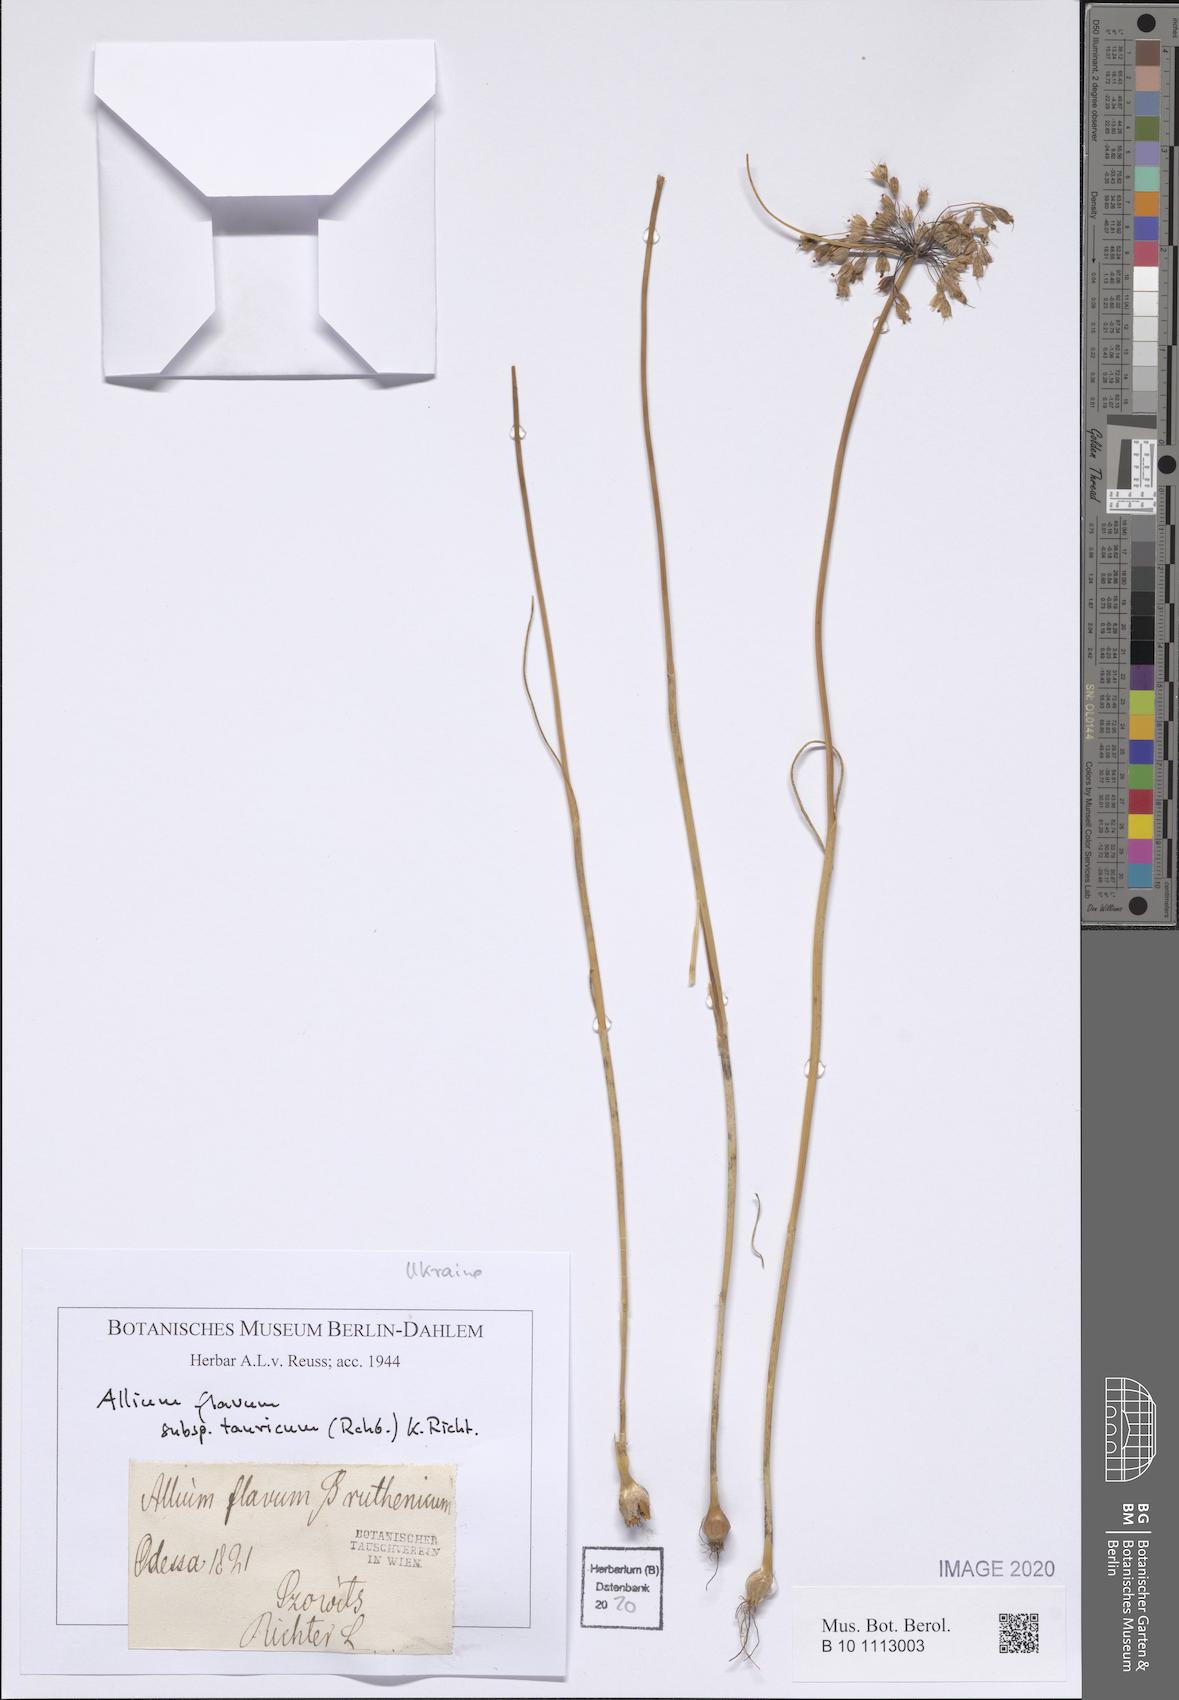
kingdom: Plantae
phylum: Tracheophyta
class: Liliopsida
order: Asparagales
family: Amaryllidaceae
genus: Allium
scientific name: Allium flavum
